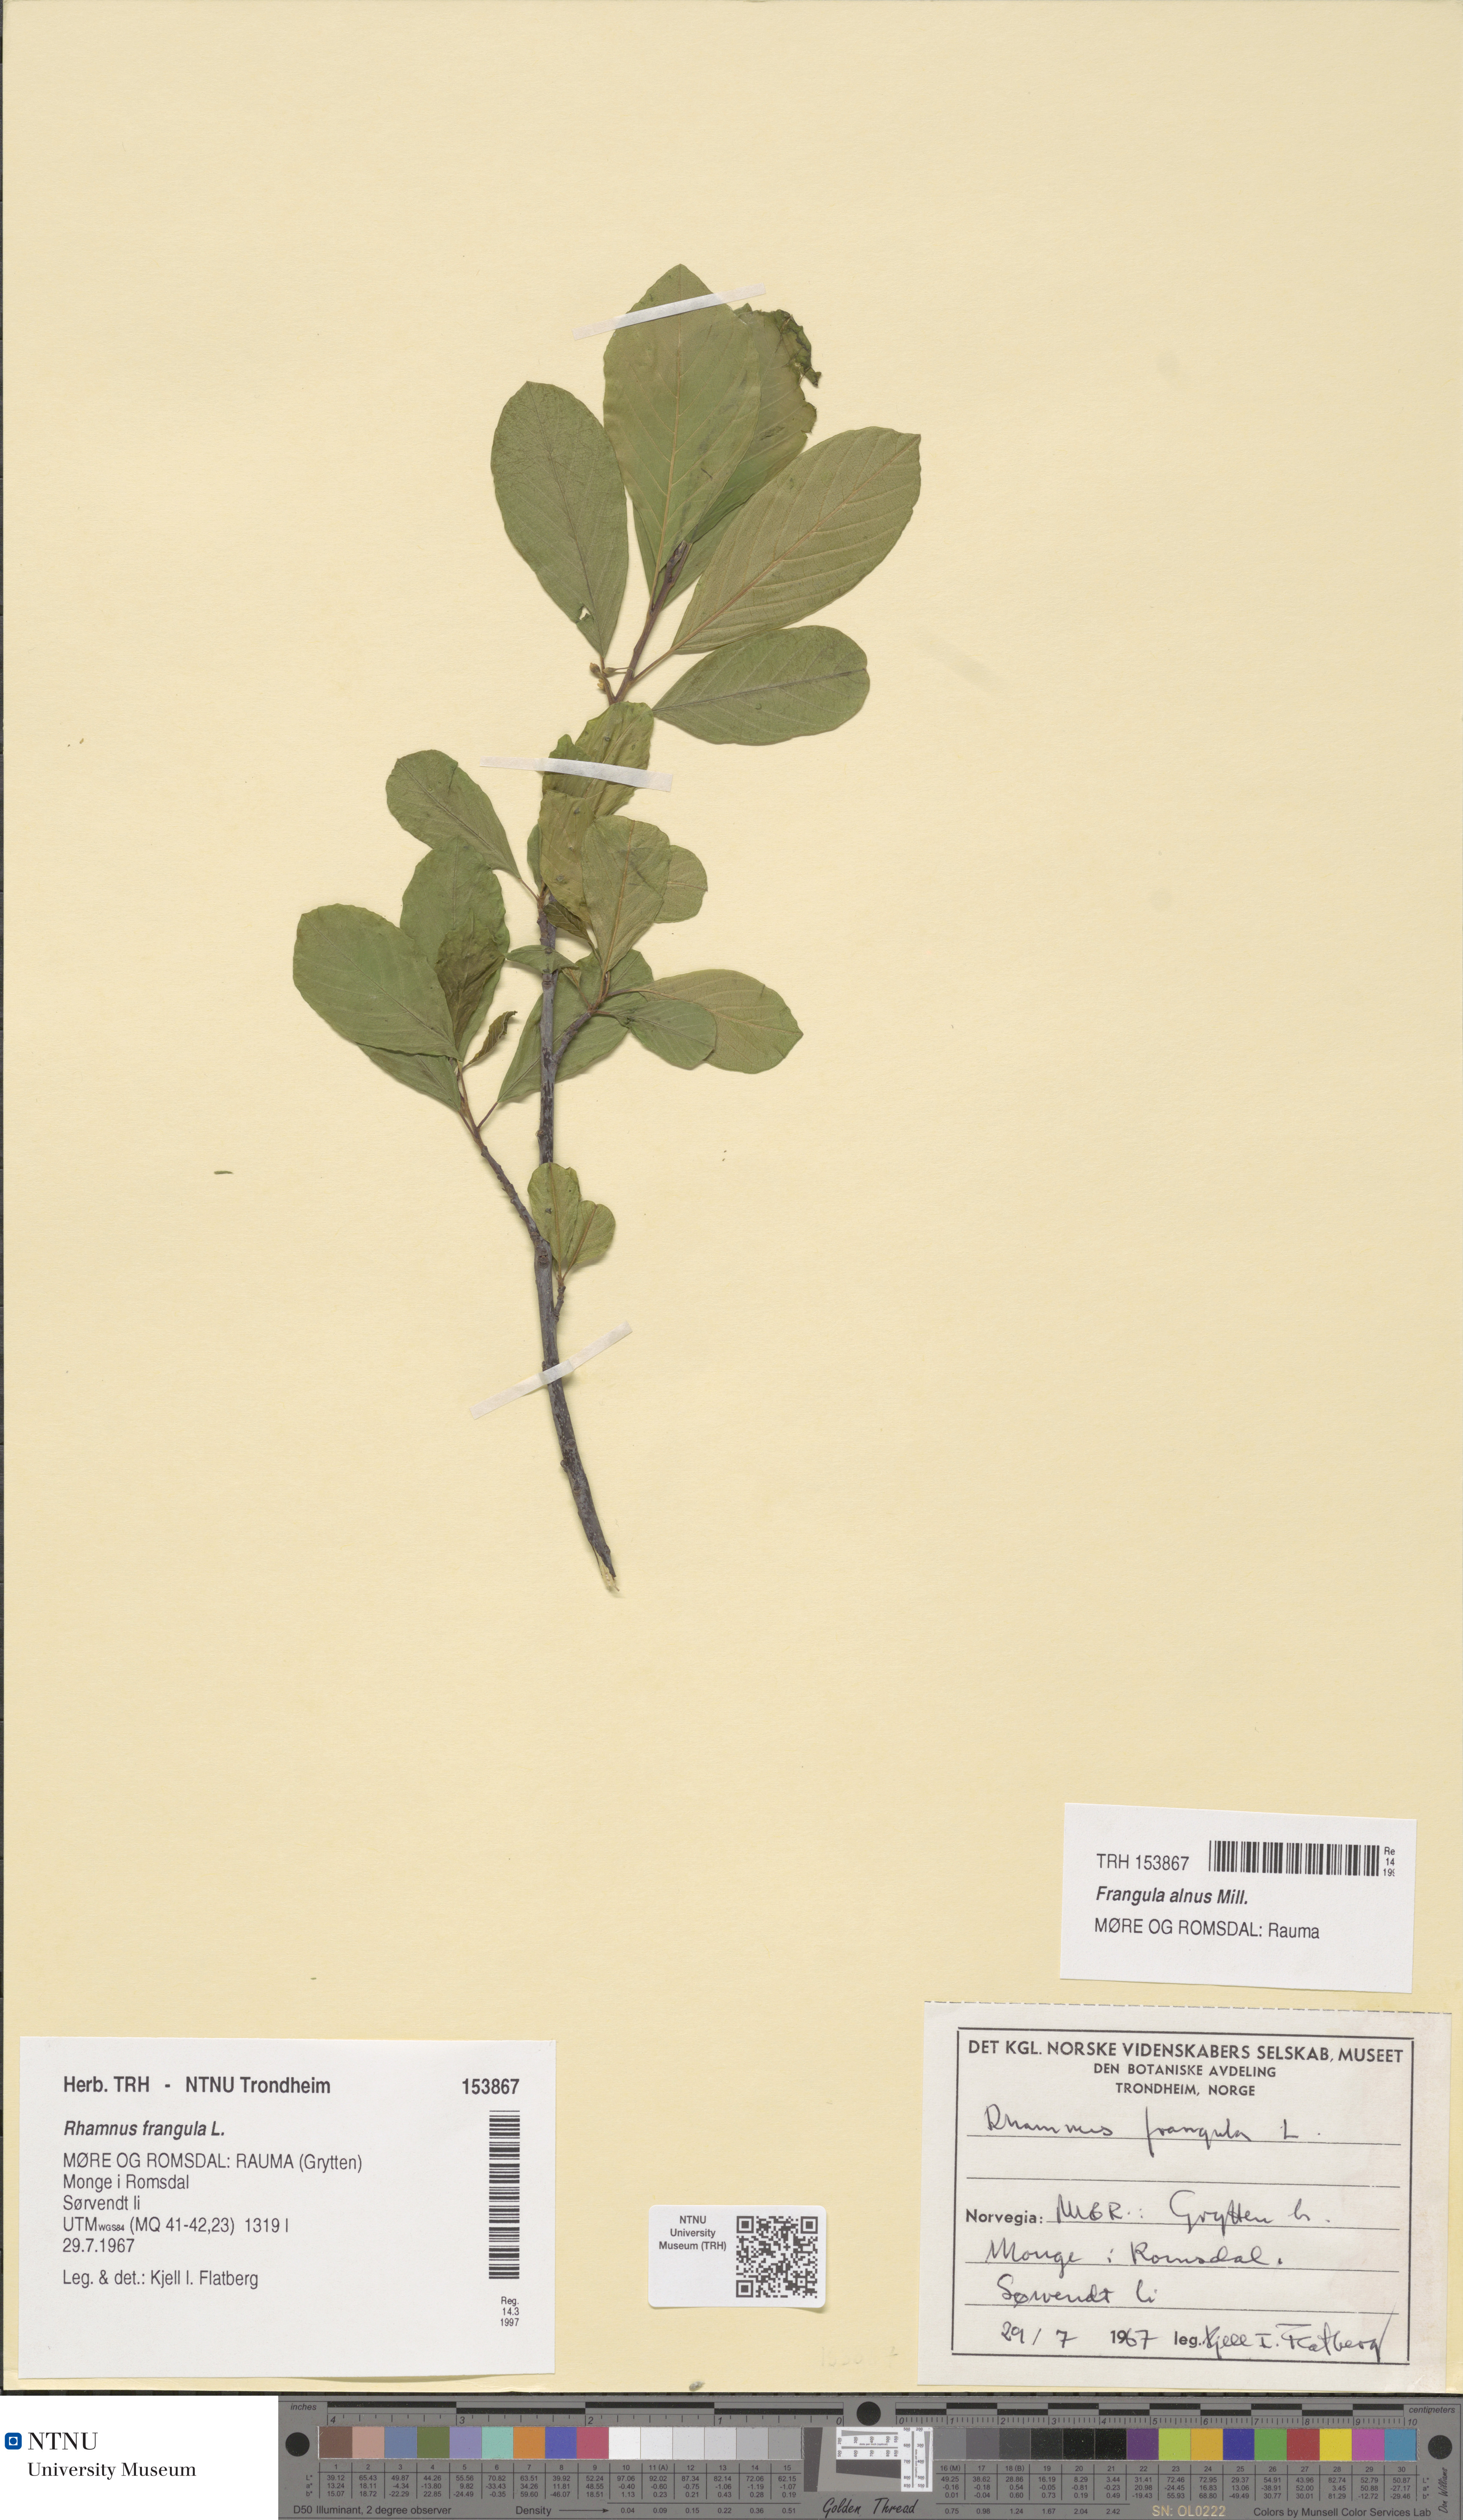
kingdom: Plantae
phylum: Tracheophyta
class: Magnoliopsida
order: Rosales
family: Rhamnaceae
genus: Frangula
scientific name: Frangula alnus
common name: Alder buckthorn
